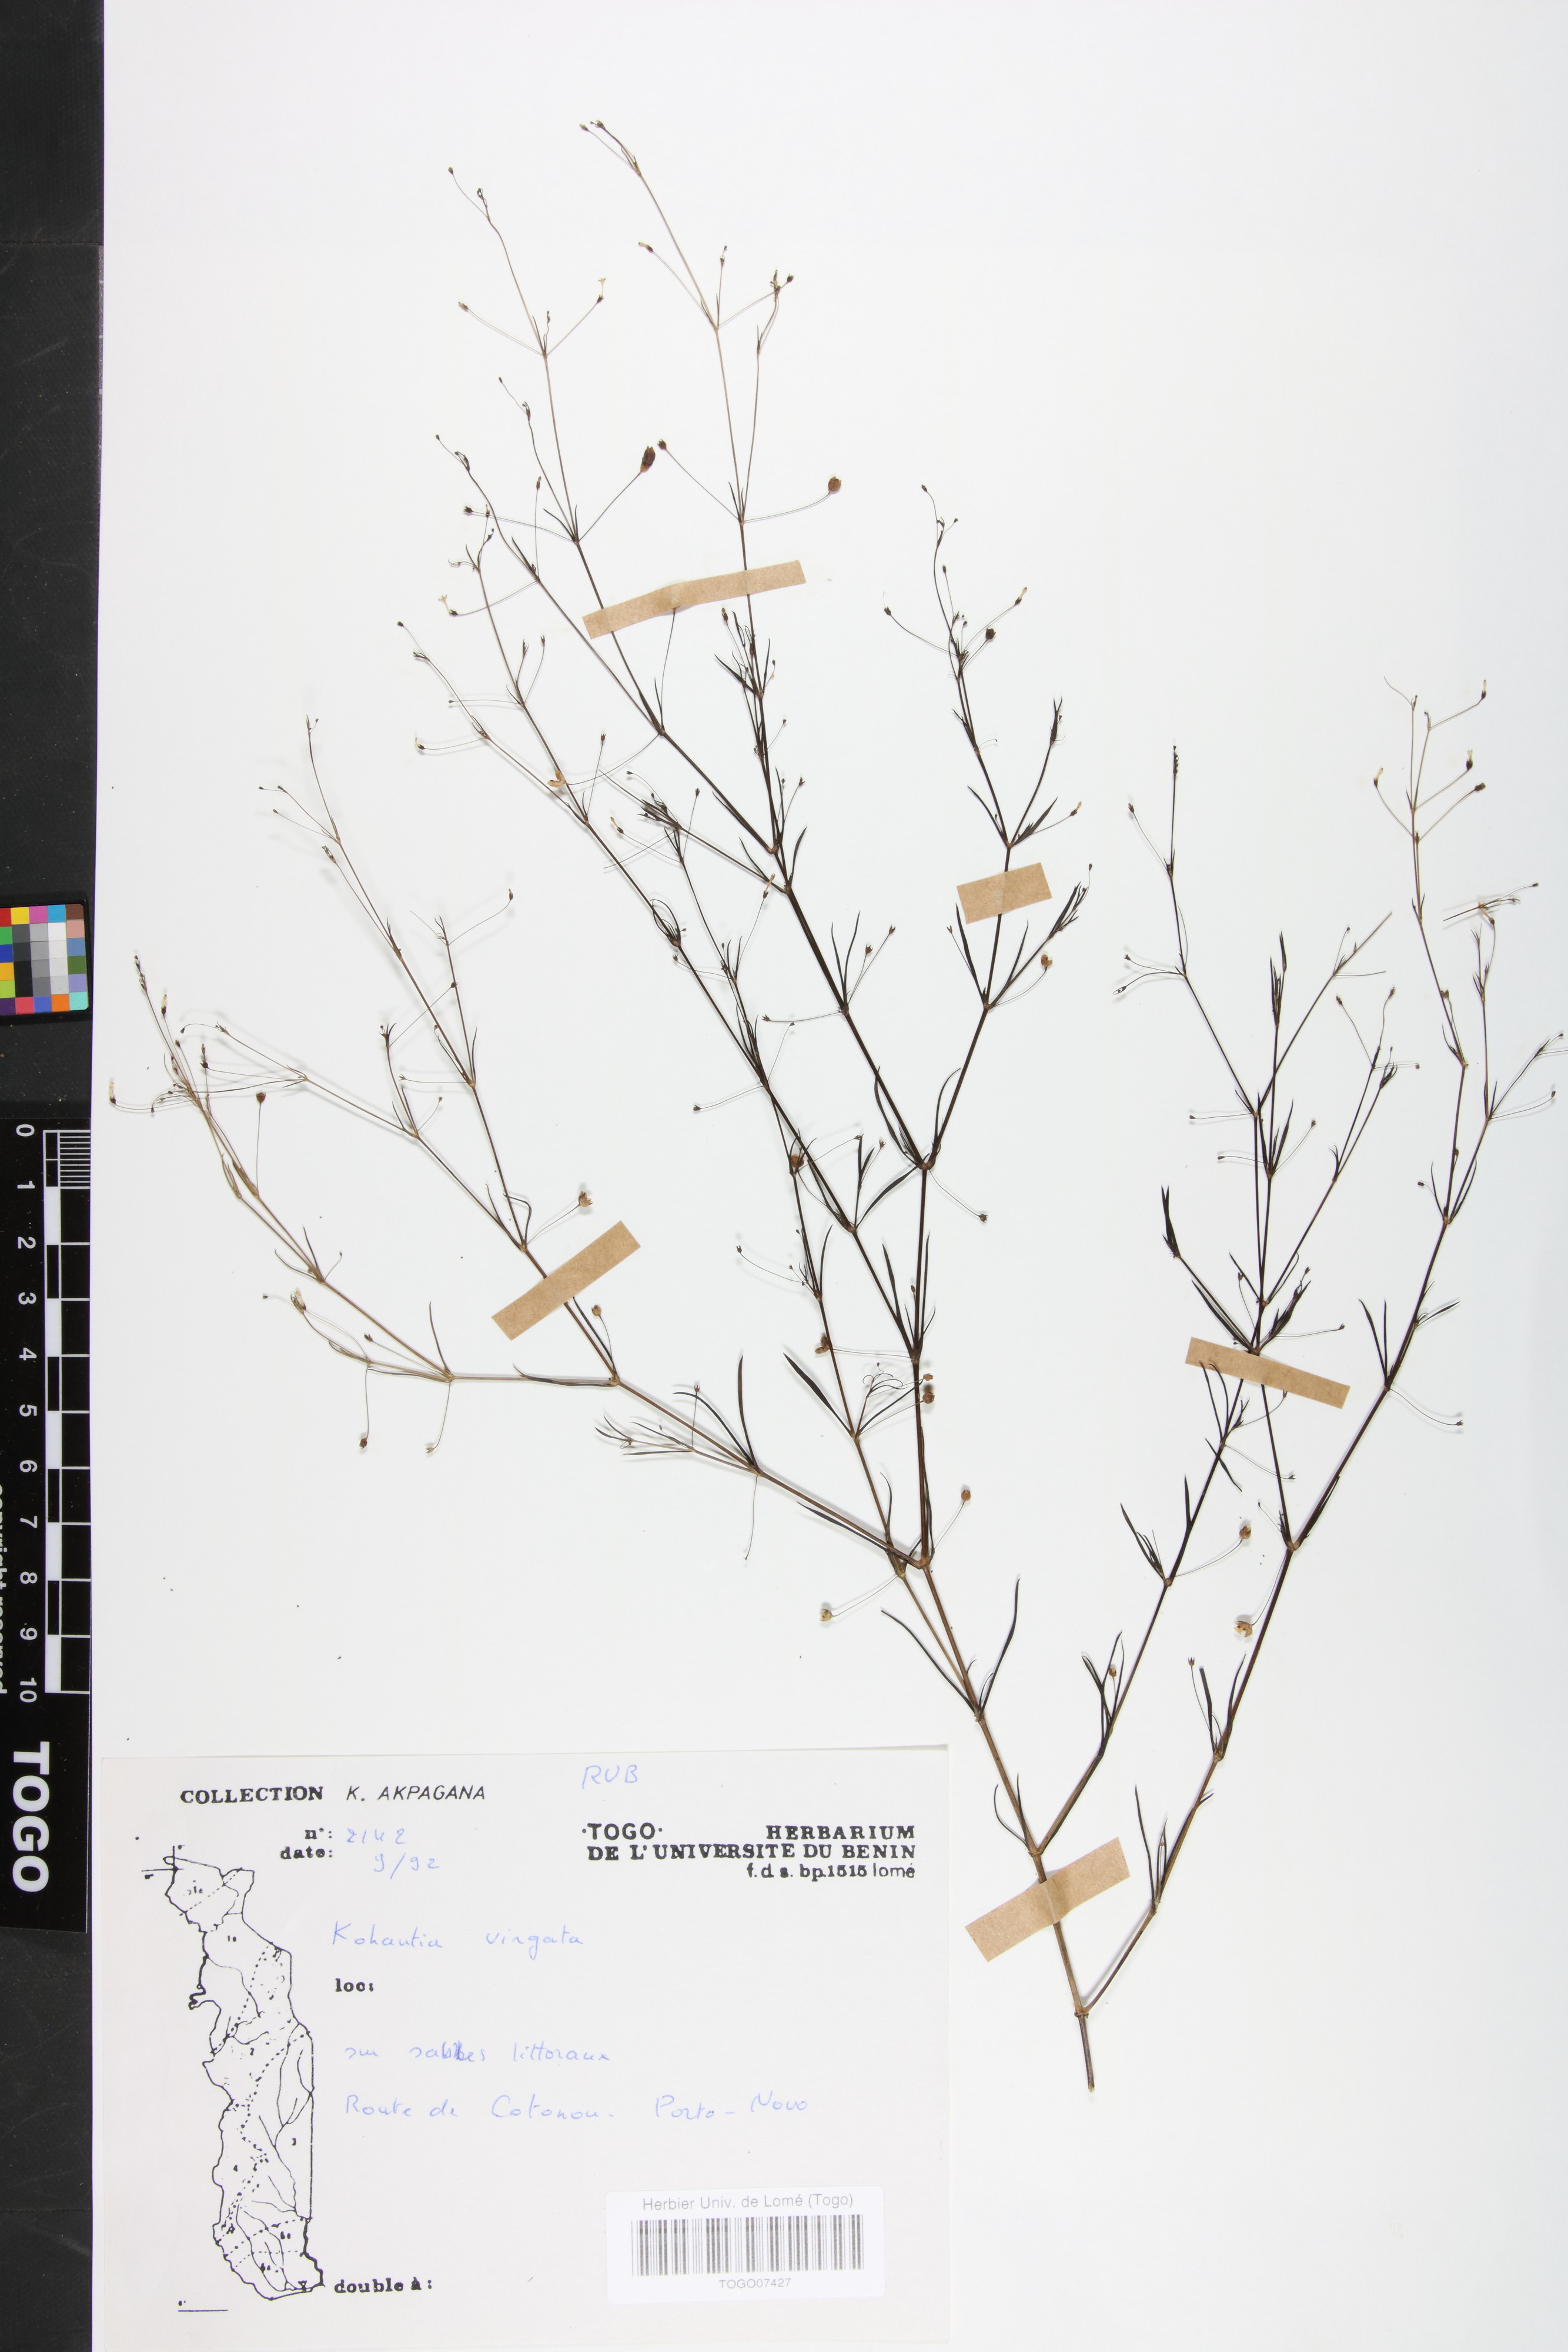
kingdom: Plantae
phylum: Tracheophyta
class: Magnoliopsida
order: Gentianales
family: Rubiaceae
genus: Cordylostigma
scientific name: Cordylostigma virgatum
